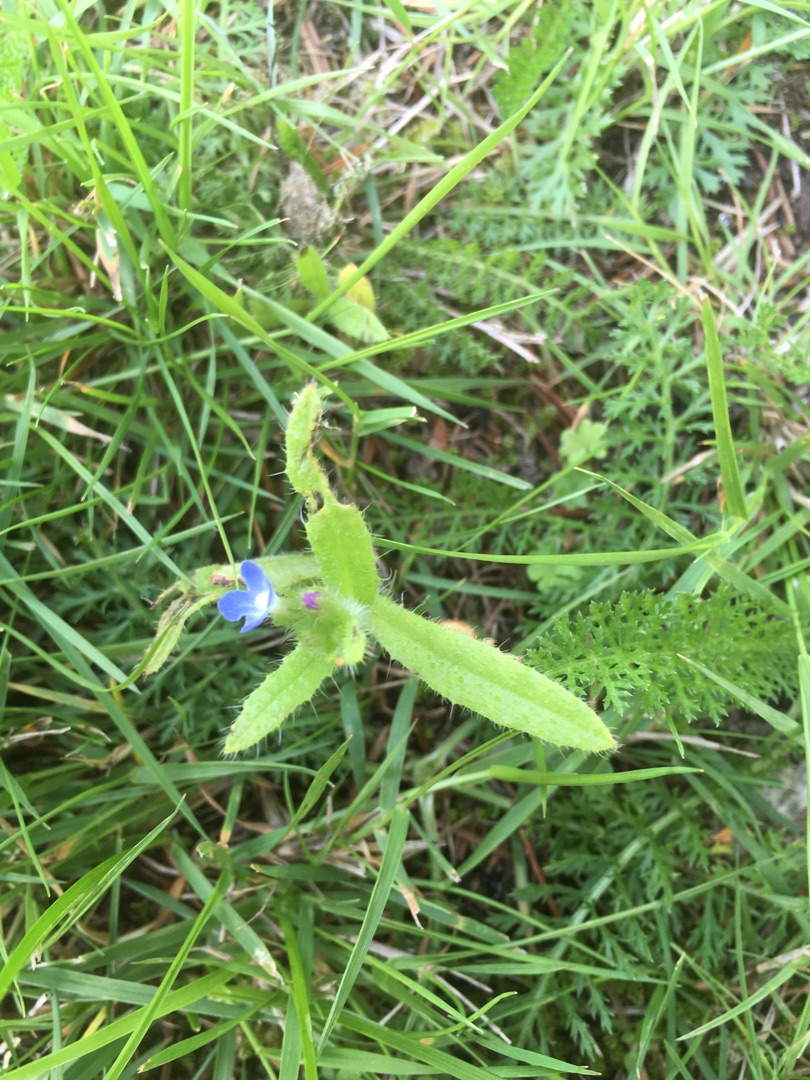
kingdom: Plantae
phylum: Tracheophyta
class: Magnoliopsida
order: Boraginales
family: Boraginaceae
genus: Lycopsis
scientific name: Lycopsis arvensis
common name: Krumhals
